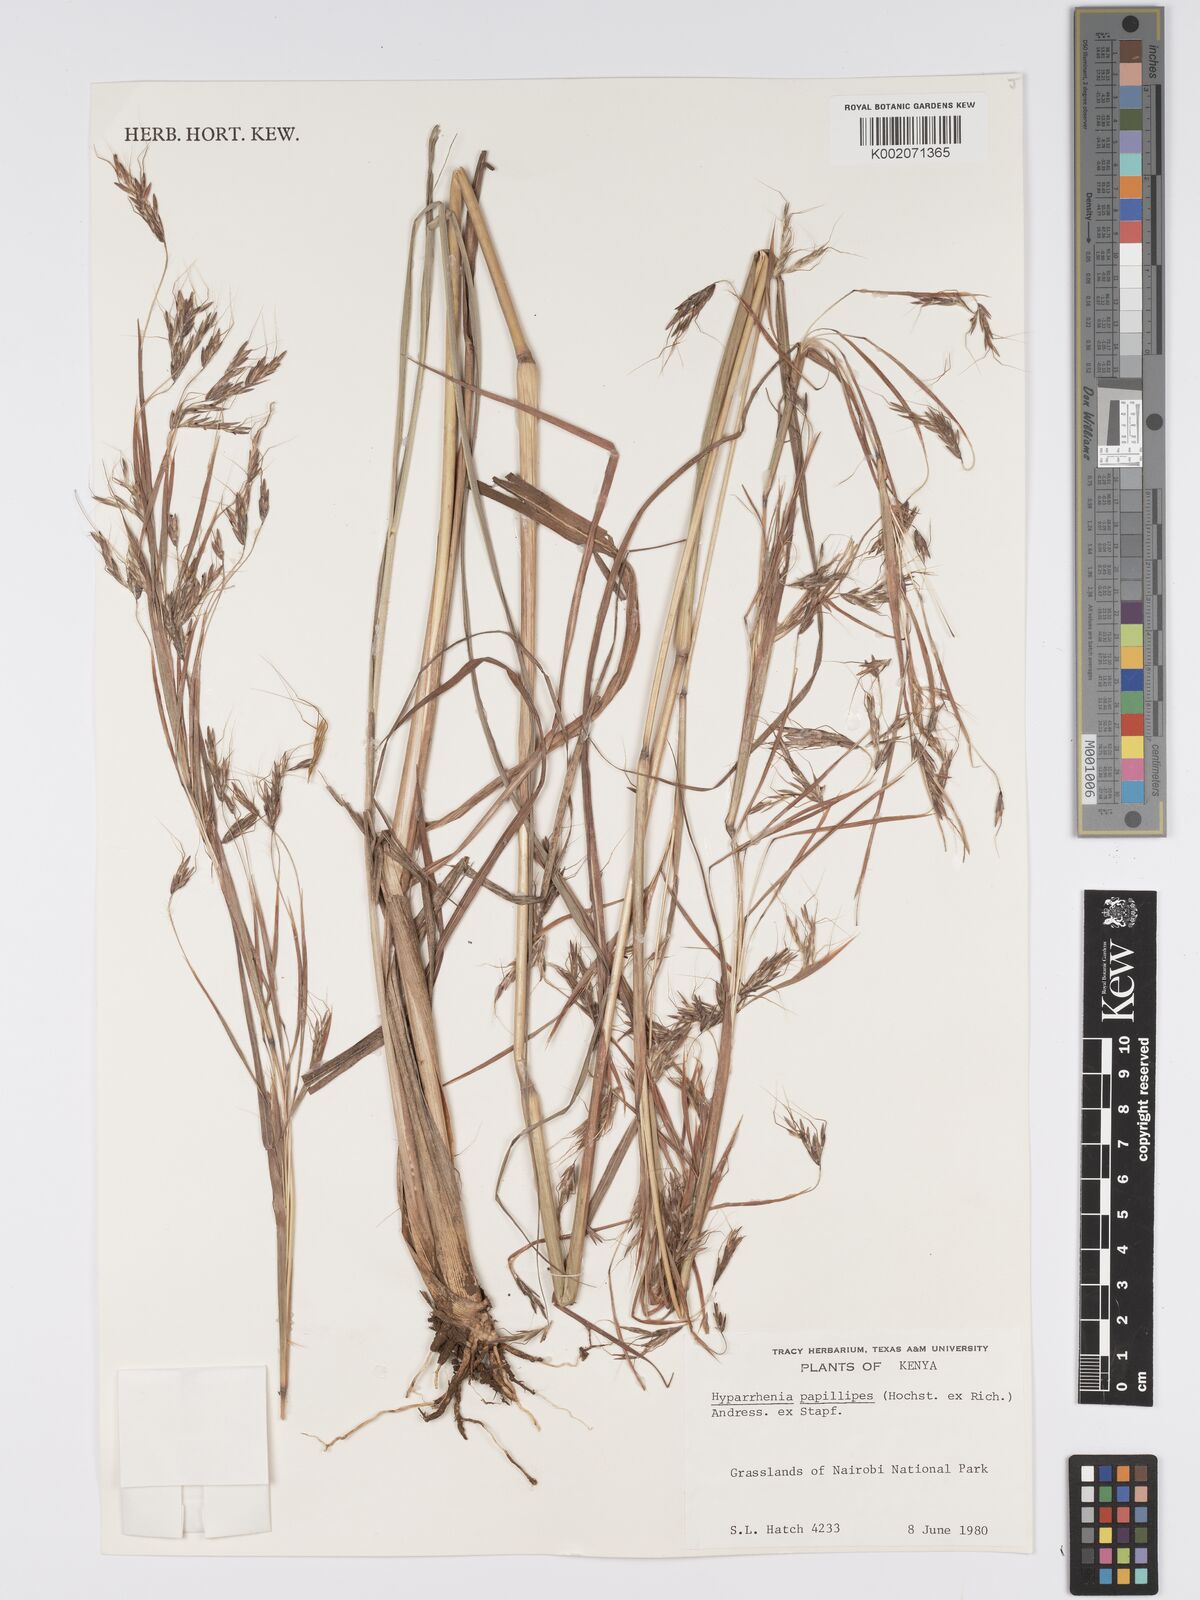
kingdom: Plantae
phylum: Tracheophyta
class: Liliopsida
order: Poales
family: Poaceae
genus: Hyparrhenia
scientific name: Hyparrhenia nyassae
